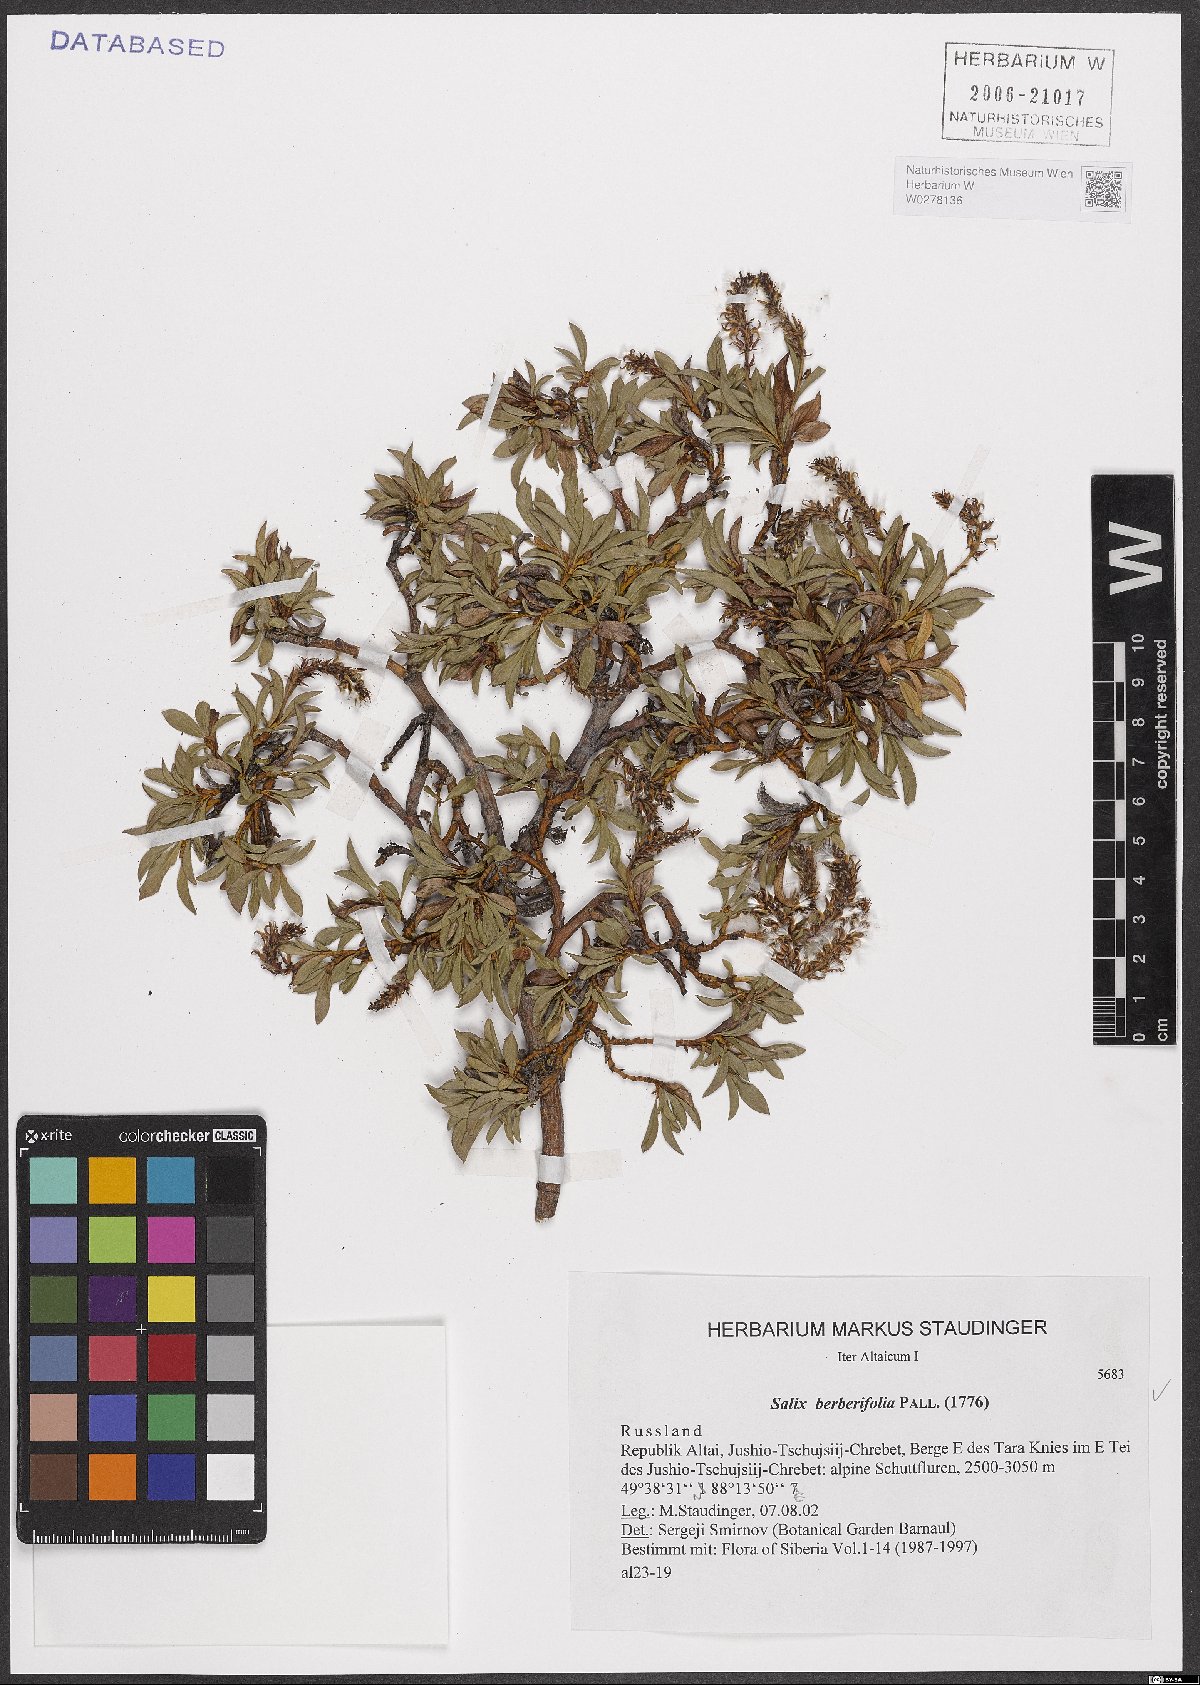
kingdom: Plantae
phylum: Tracheophyta
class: Magnoliopsida
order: Malpighiales
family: Salicaceae
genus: Salix
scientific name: Salix berberifolia
